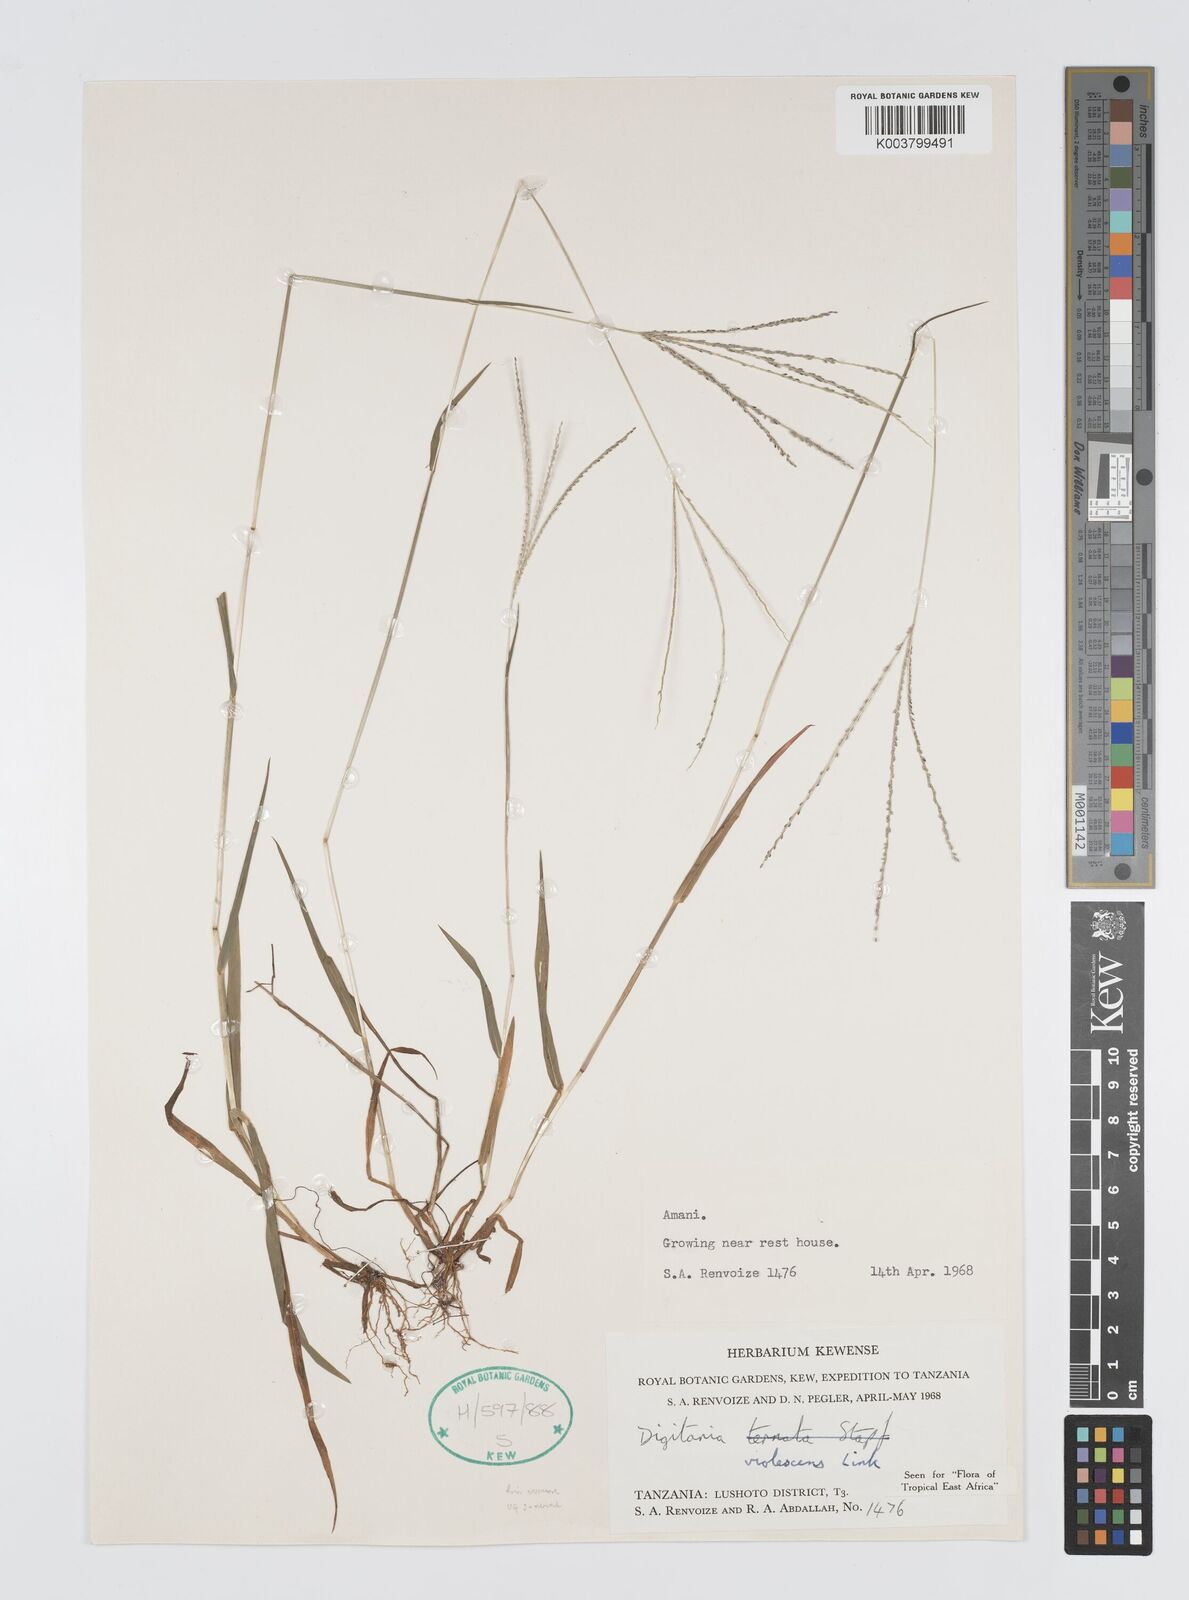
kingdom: Plantae
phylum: Tracheophyta
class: Liliopsida
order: Poales
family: Poaceae
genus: Digitaria
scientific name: Digitaria violascens
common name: Violet crabgrass
